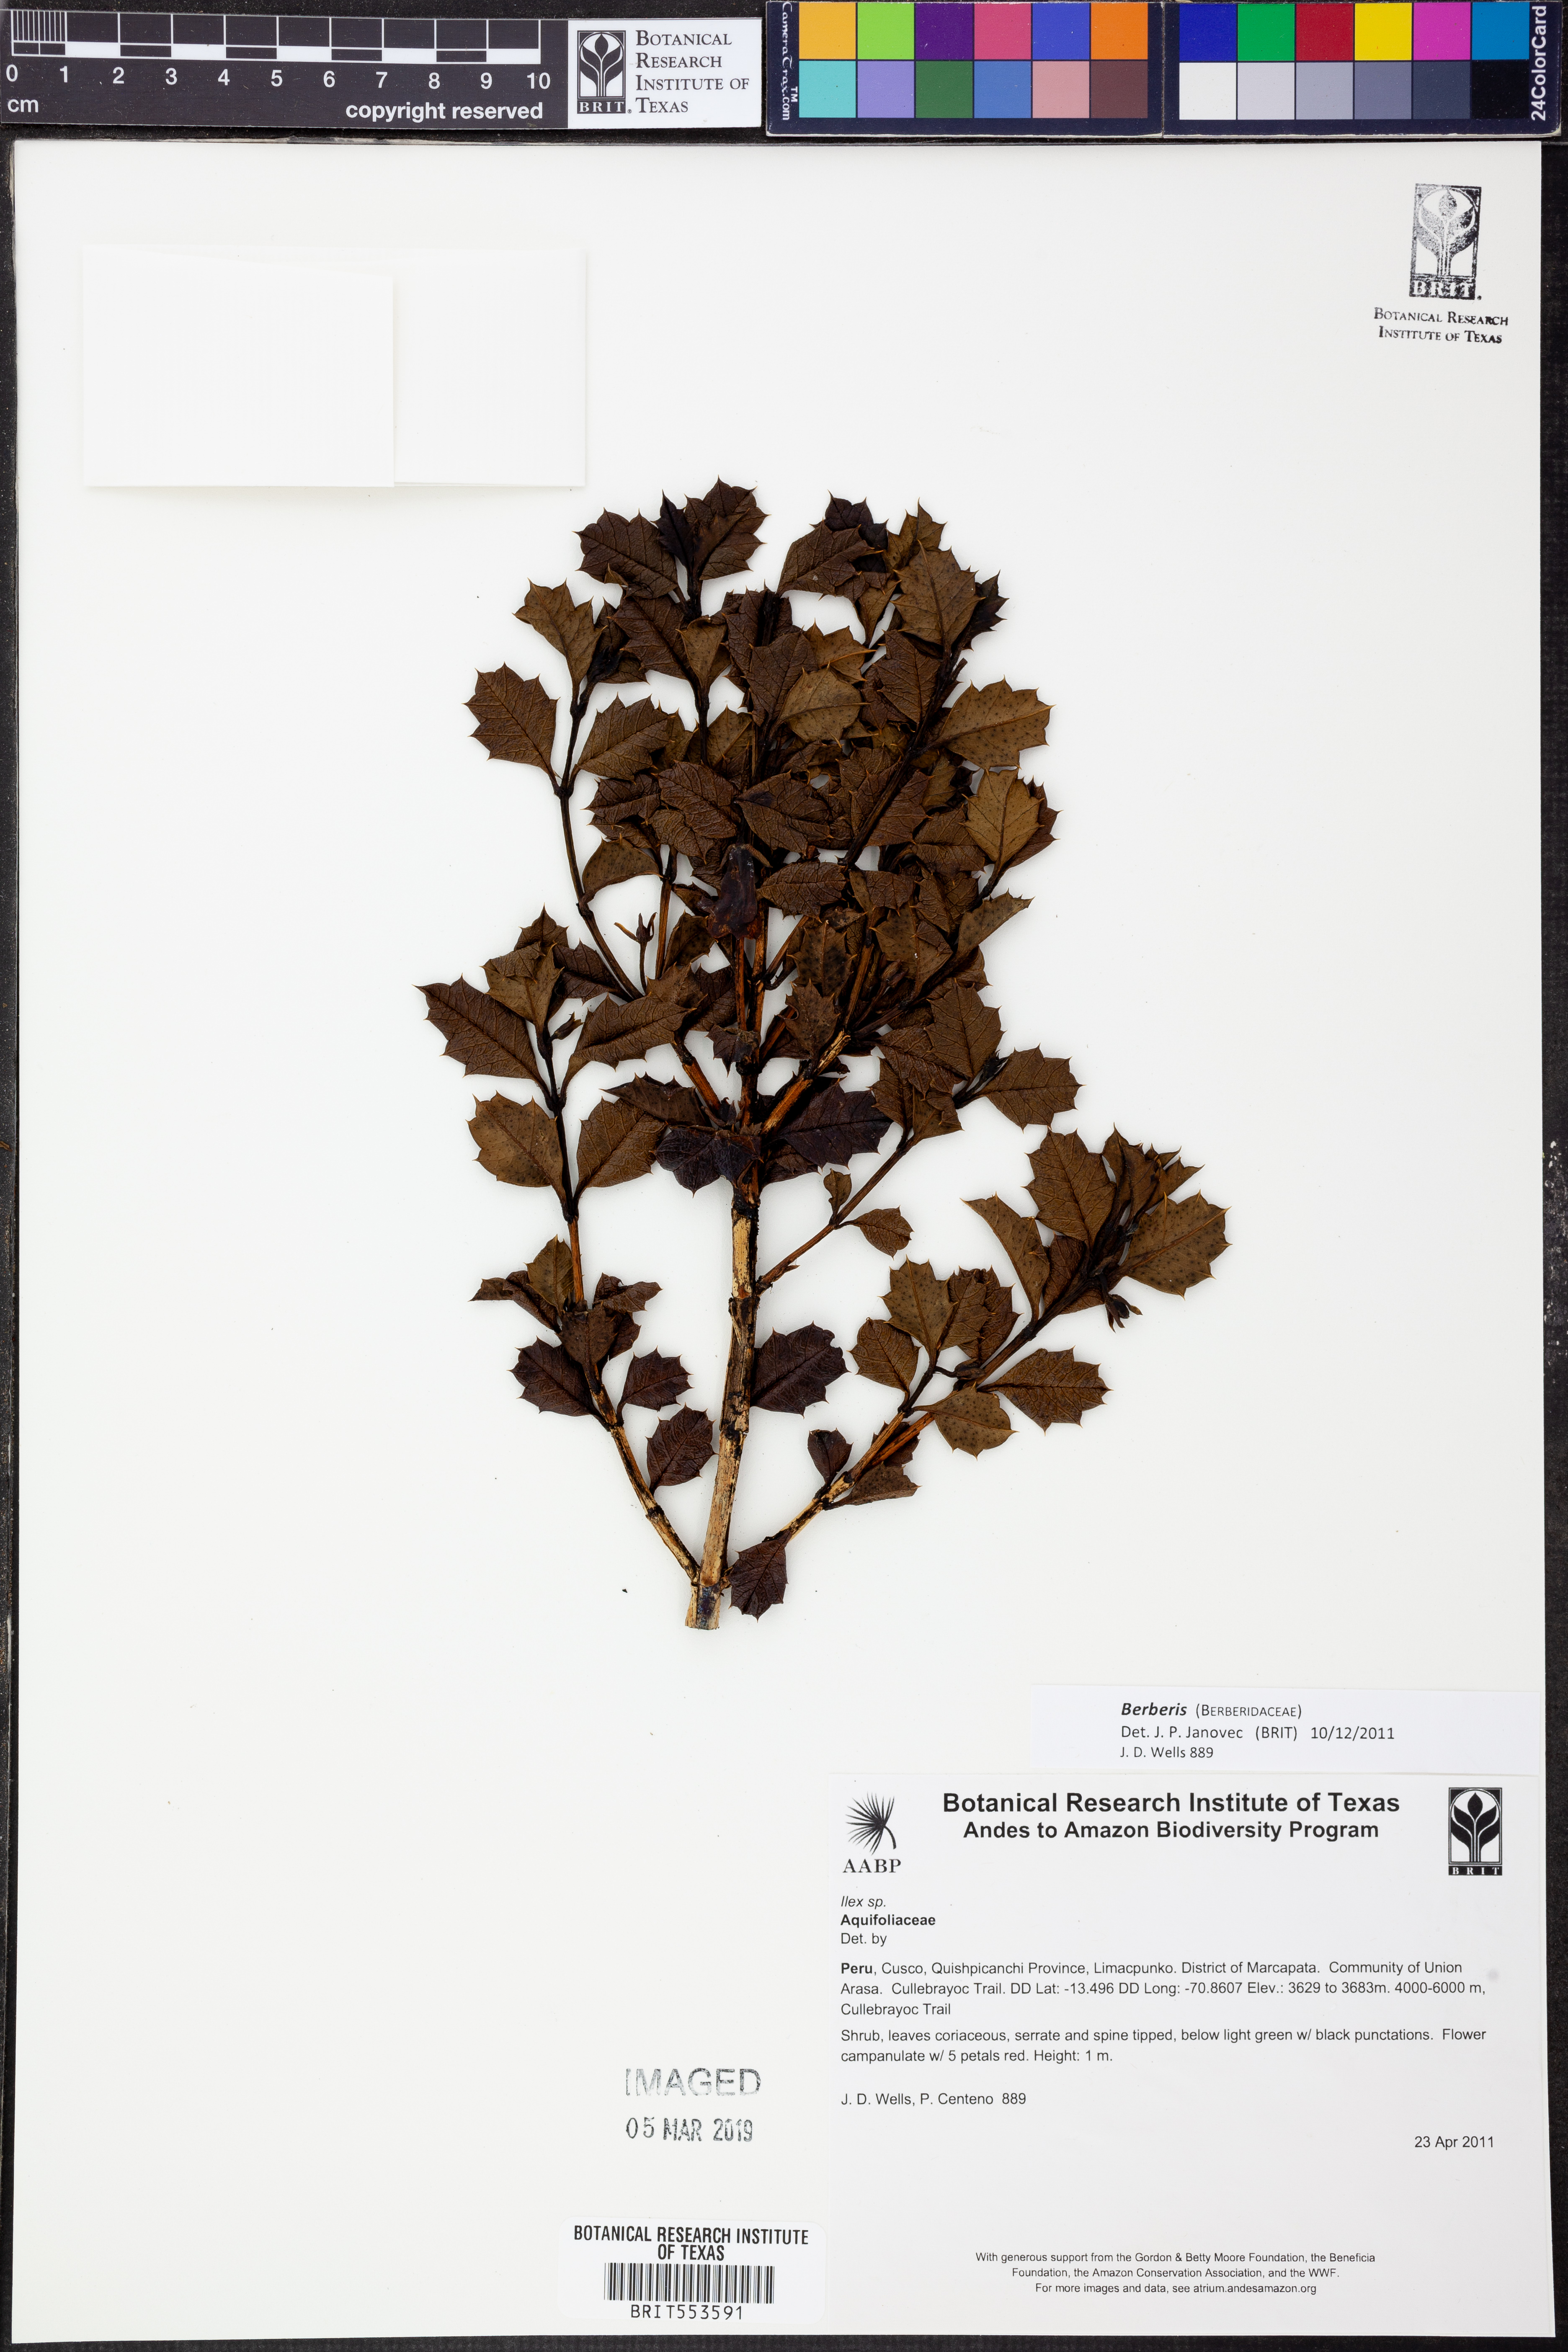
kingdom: Plantae
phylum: Tracheophyta
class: Magnoliopsida
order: Ranunculales
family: Berberidaceae
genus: Berberis
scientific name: Berberis
